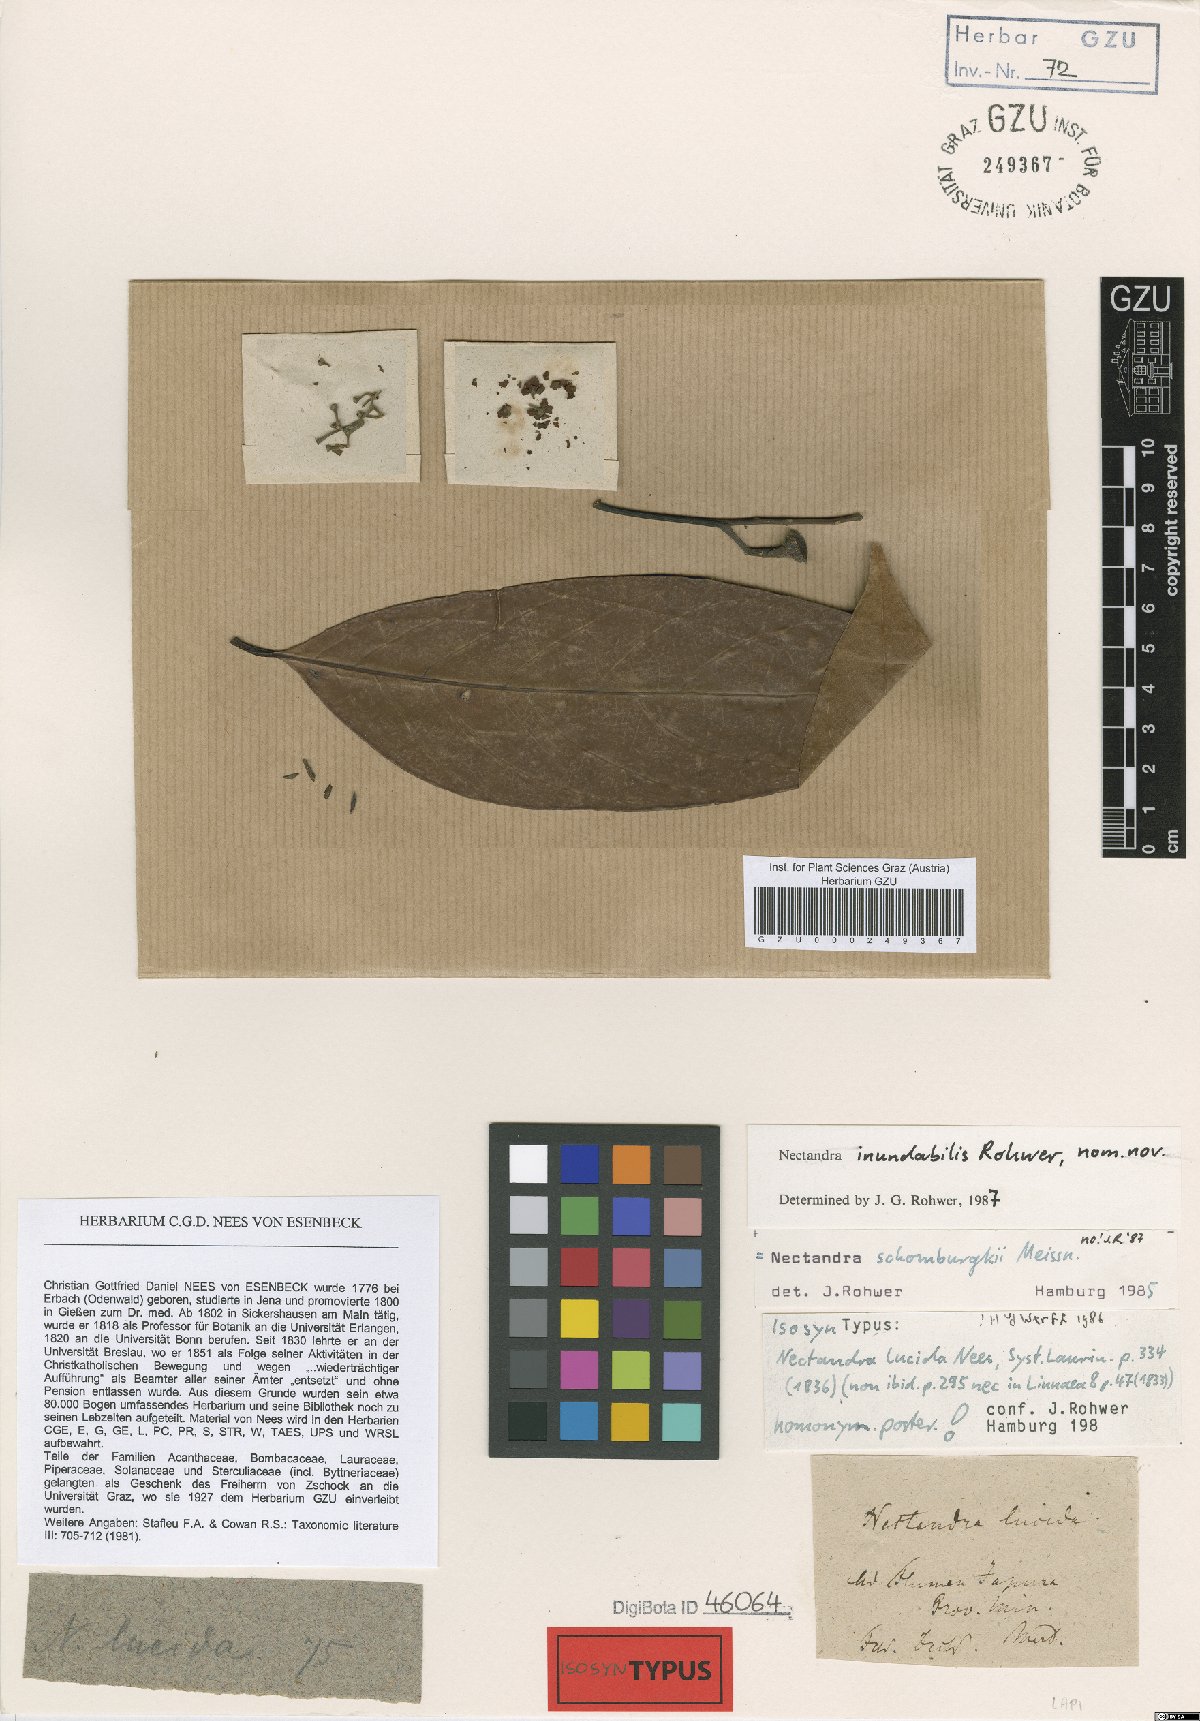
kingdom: Plantae
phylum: Tracheophyta
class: Magnoliopsida
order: Laurales
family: Lauraceae
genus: Endlicheria
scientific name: Endlicheria paniculata
